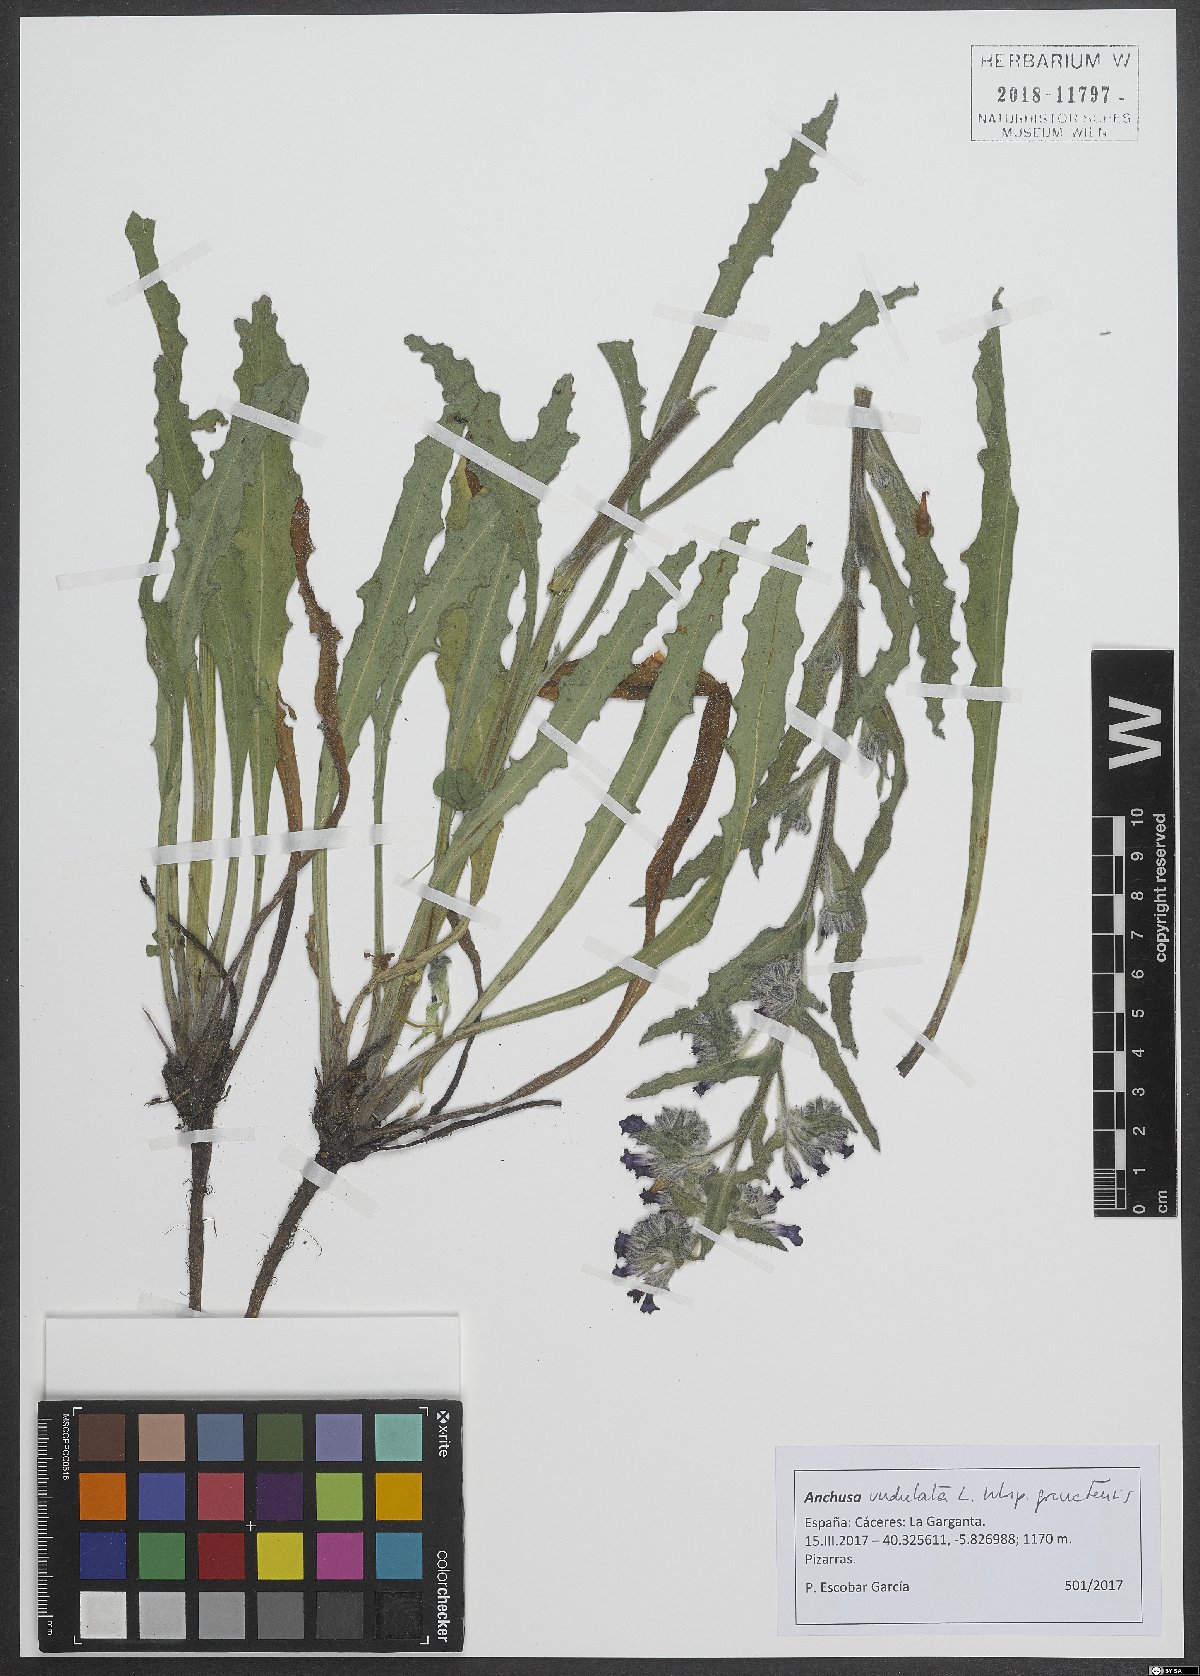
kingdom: Plantae
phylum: Tracheophyta
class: Magnoliopsida
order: Boraginales
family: Boraginaceae
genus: Anchusa
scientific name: Anchusa undulata
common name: Undulate alkanet
